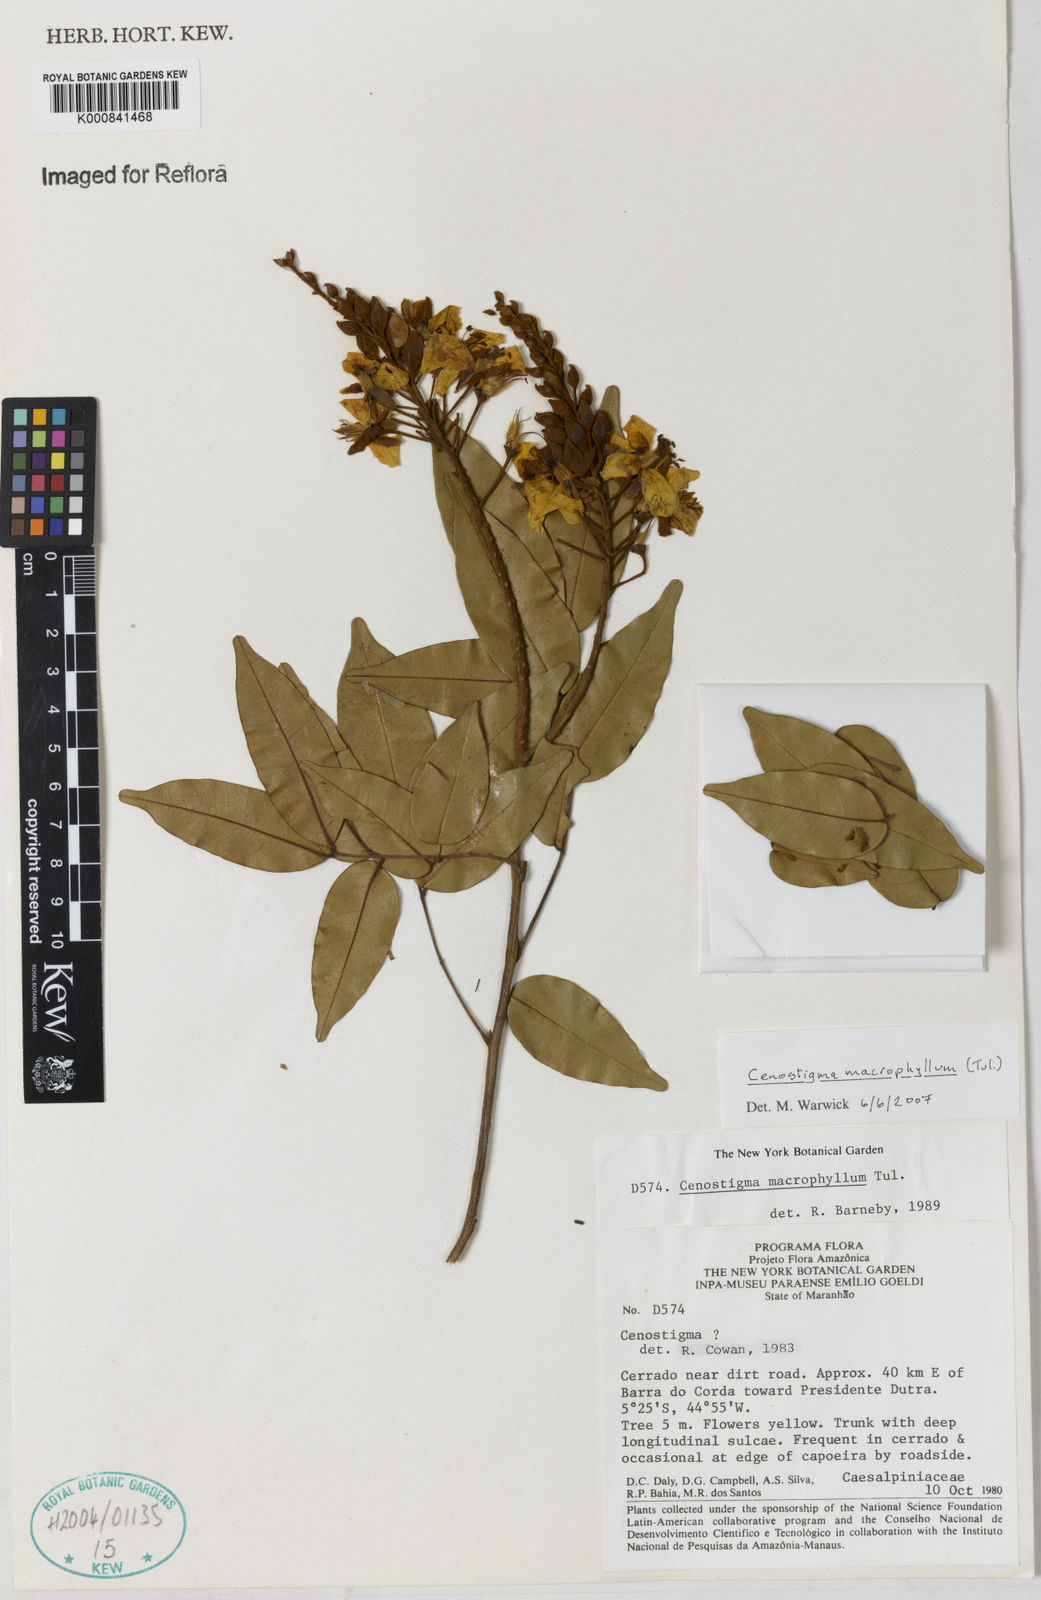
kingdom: Plantae
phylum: Tracheophyta
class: Magnoliopsida
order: Fabales
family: Fabaceae
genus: Cenostigma
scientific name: Cenostigma macrophyllum
